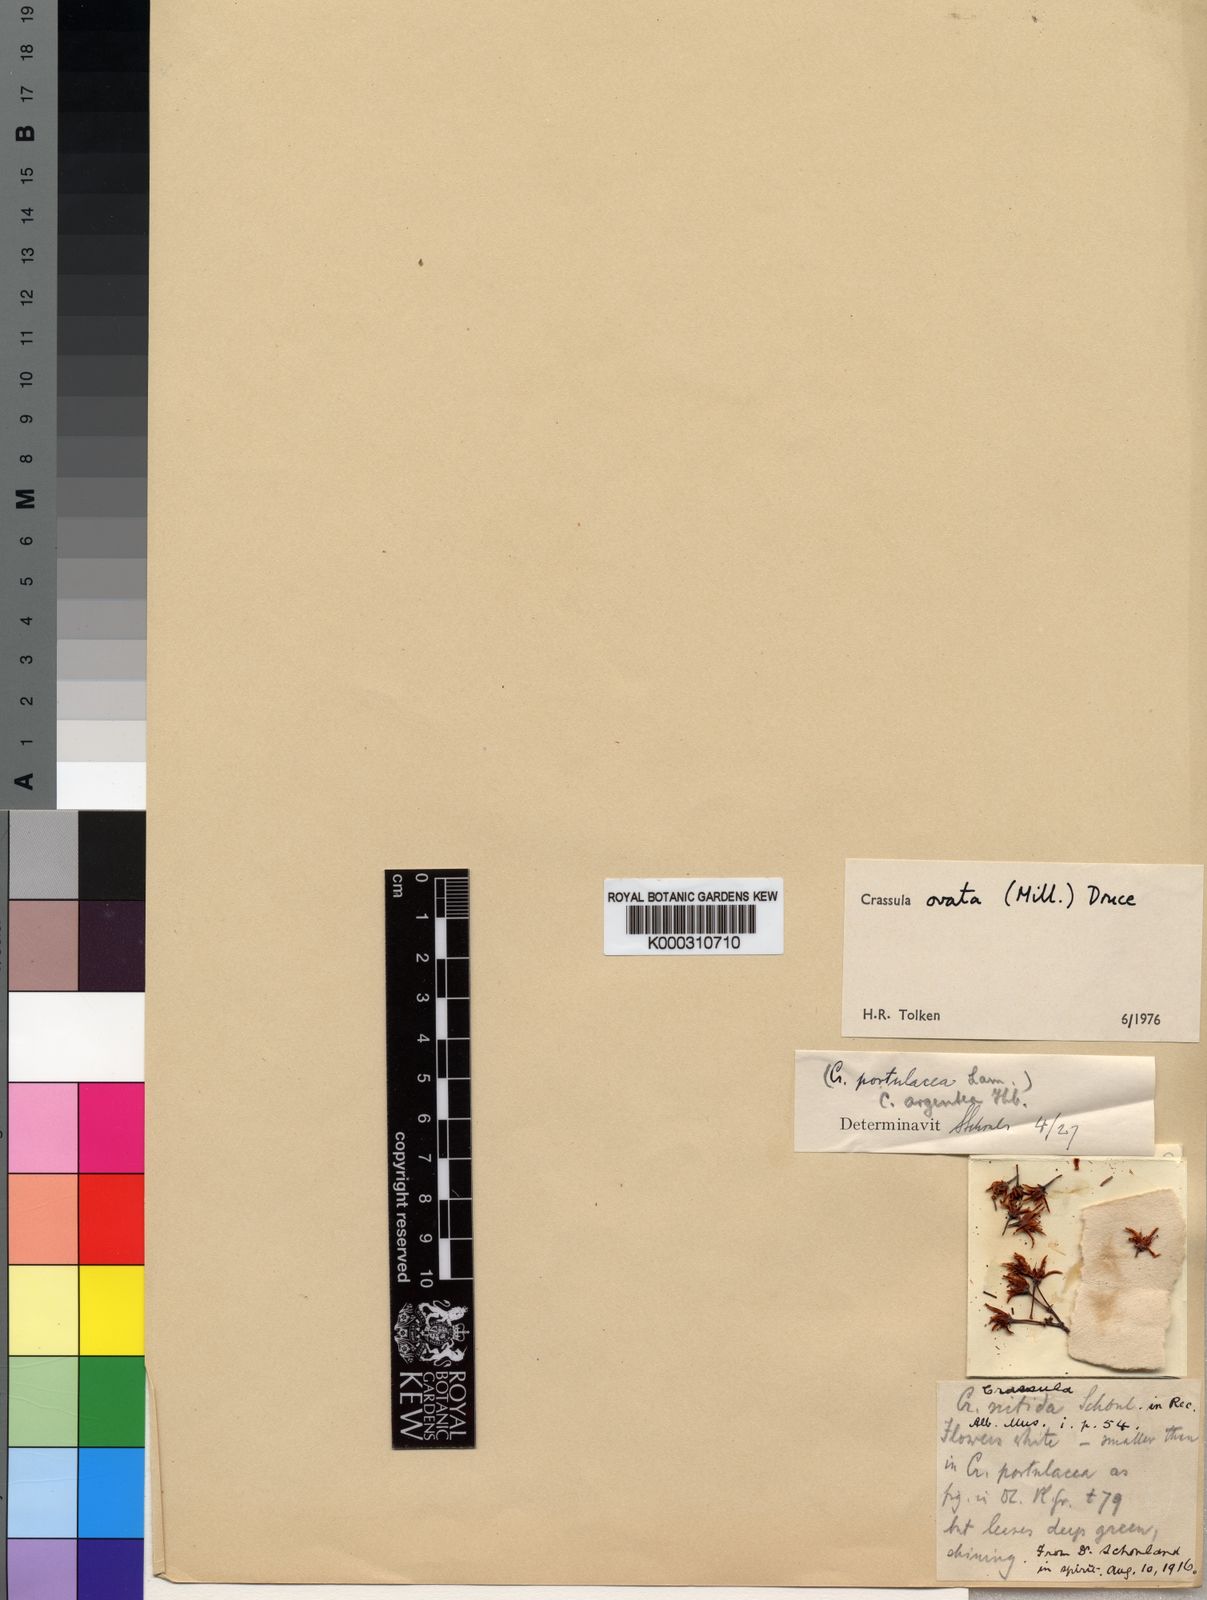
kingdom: Plantae
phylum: Tracheophyta
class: Magnoliopsida
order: Saxifragales
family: Crassulaceae
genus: Crassula
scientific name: Crassula ovata
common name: Jade plant
